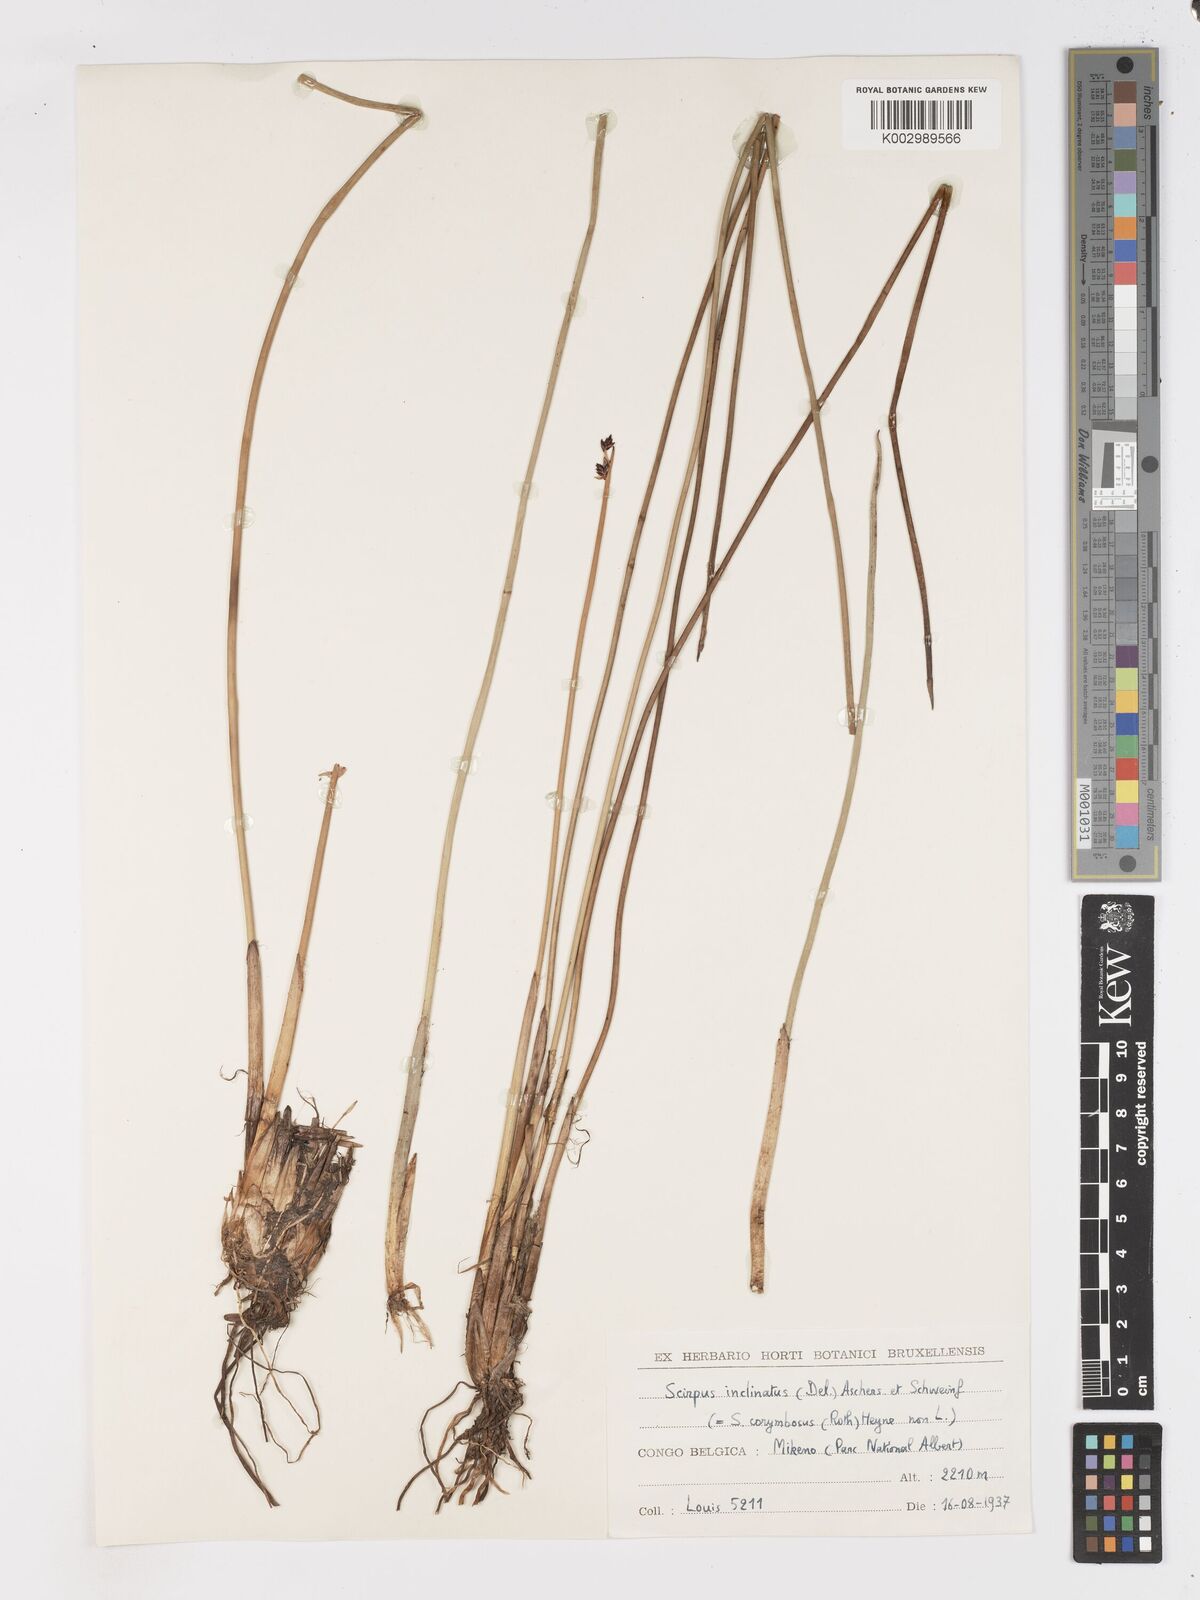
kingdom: Plantae
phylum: Tracheophyta
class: Liliopsida
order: Poales
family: Cyperaceae
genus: Schoenoplectiella
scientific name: Schoenoplectiella corymbosa
